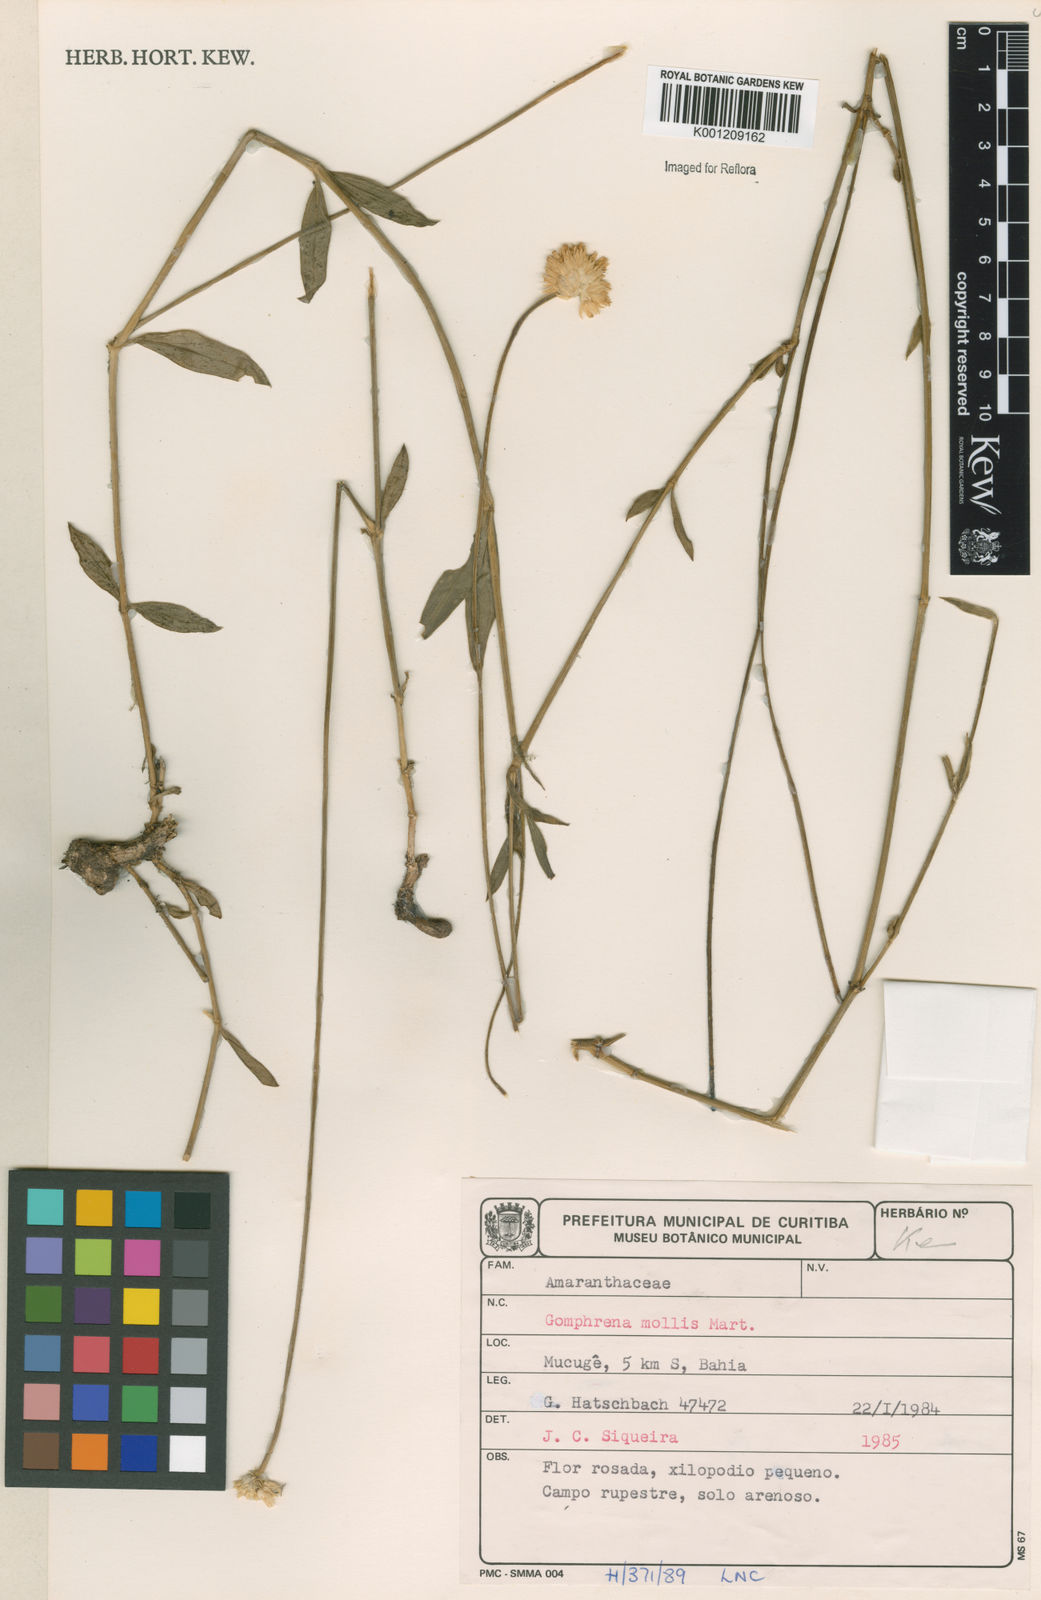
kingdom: Plantae
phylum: Tracheophyta
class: Magnoliopsida
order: Caryophyllales
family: Amaranthaceae
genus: Gomphrena
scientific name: Gomphrena mollis
